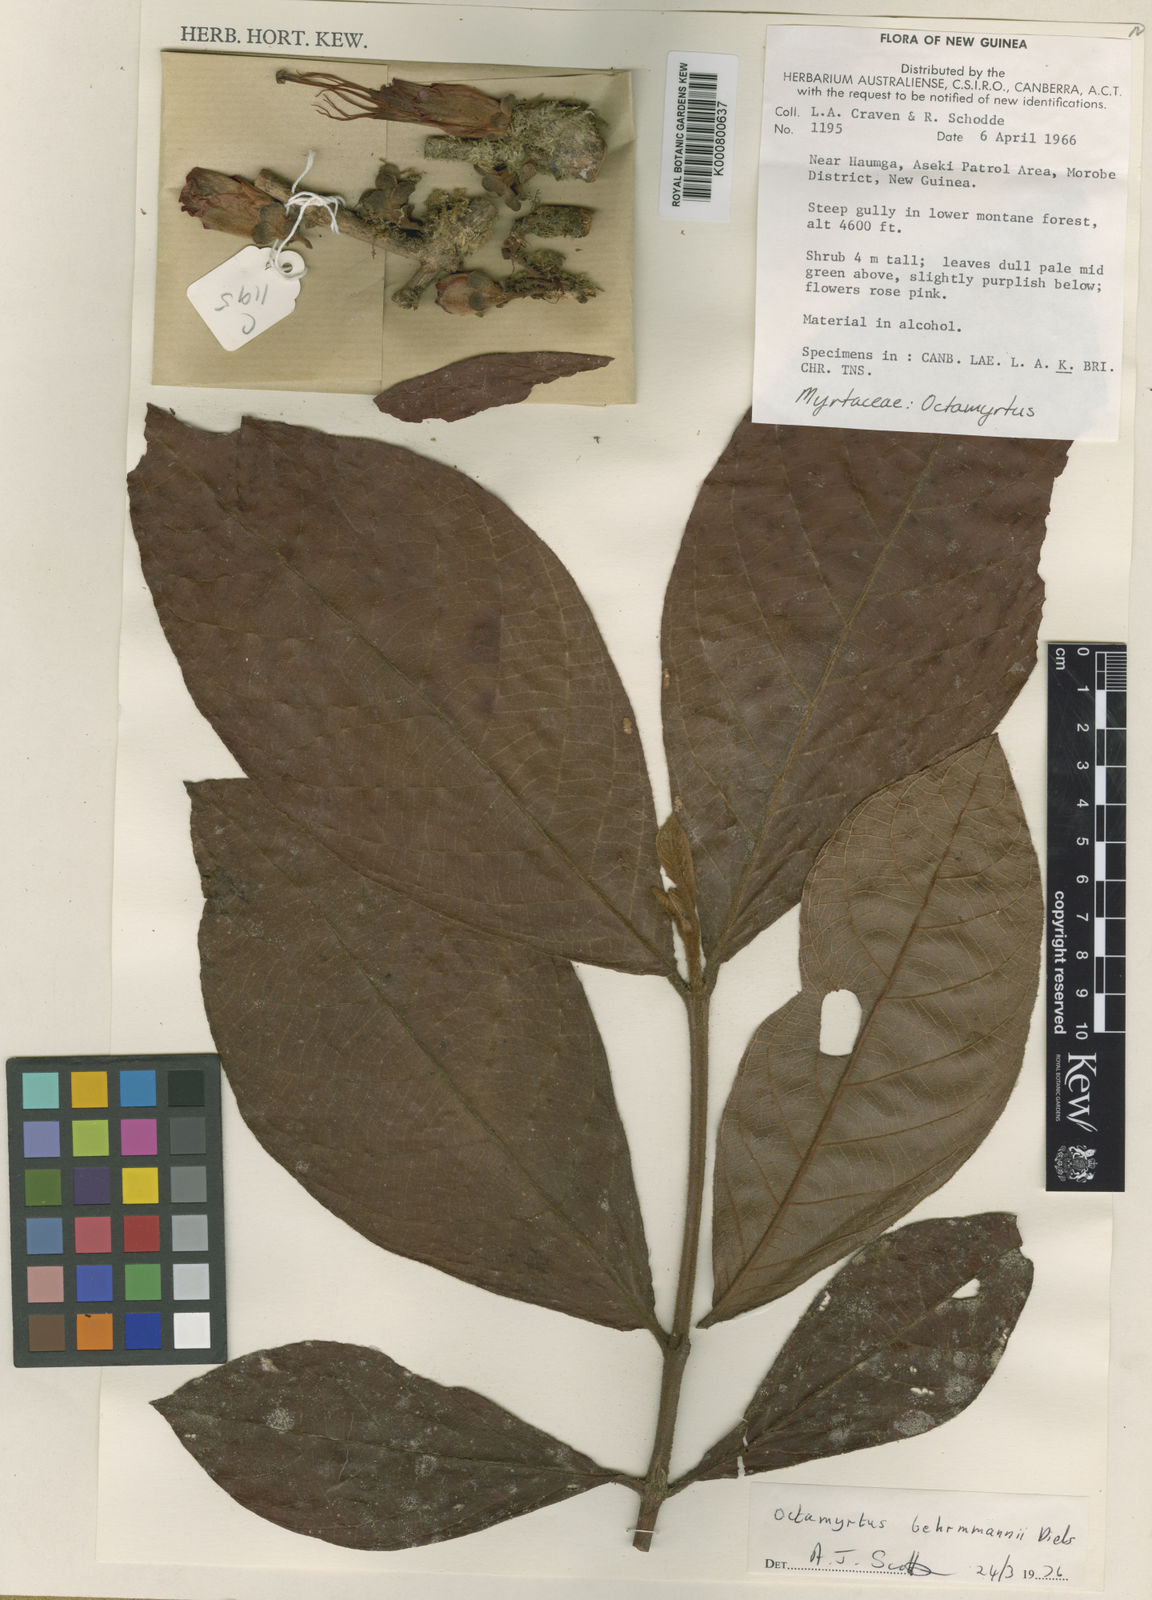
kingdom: Plantae
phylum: Tracheophyta
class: Magnoliopsida
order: Myrtales
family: Myrtaceae
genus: Octamyrtus
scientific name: Octamyrtus behrmannii
